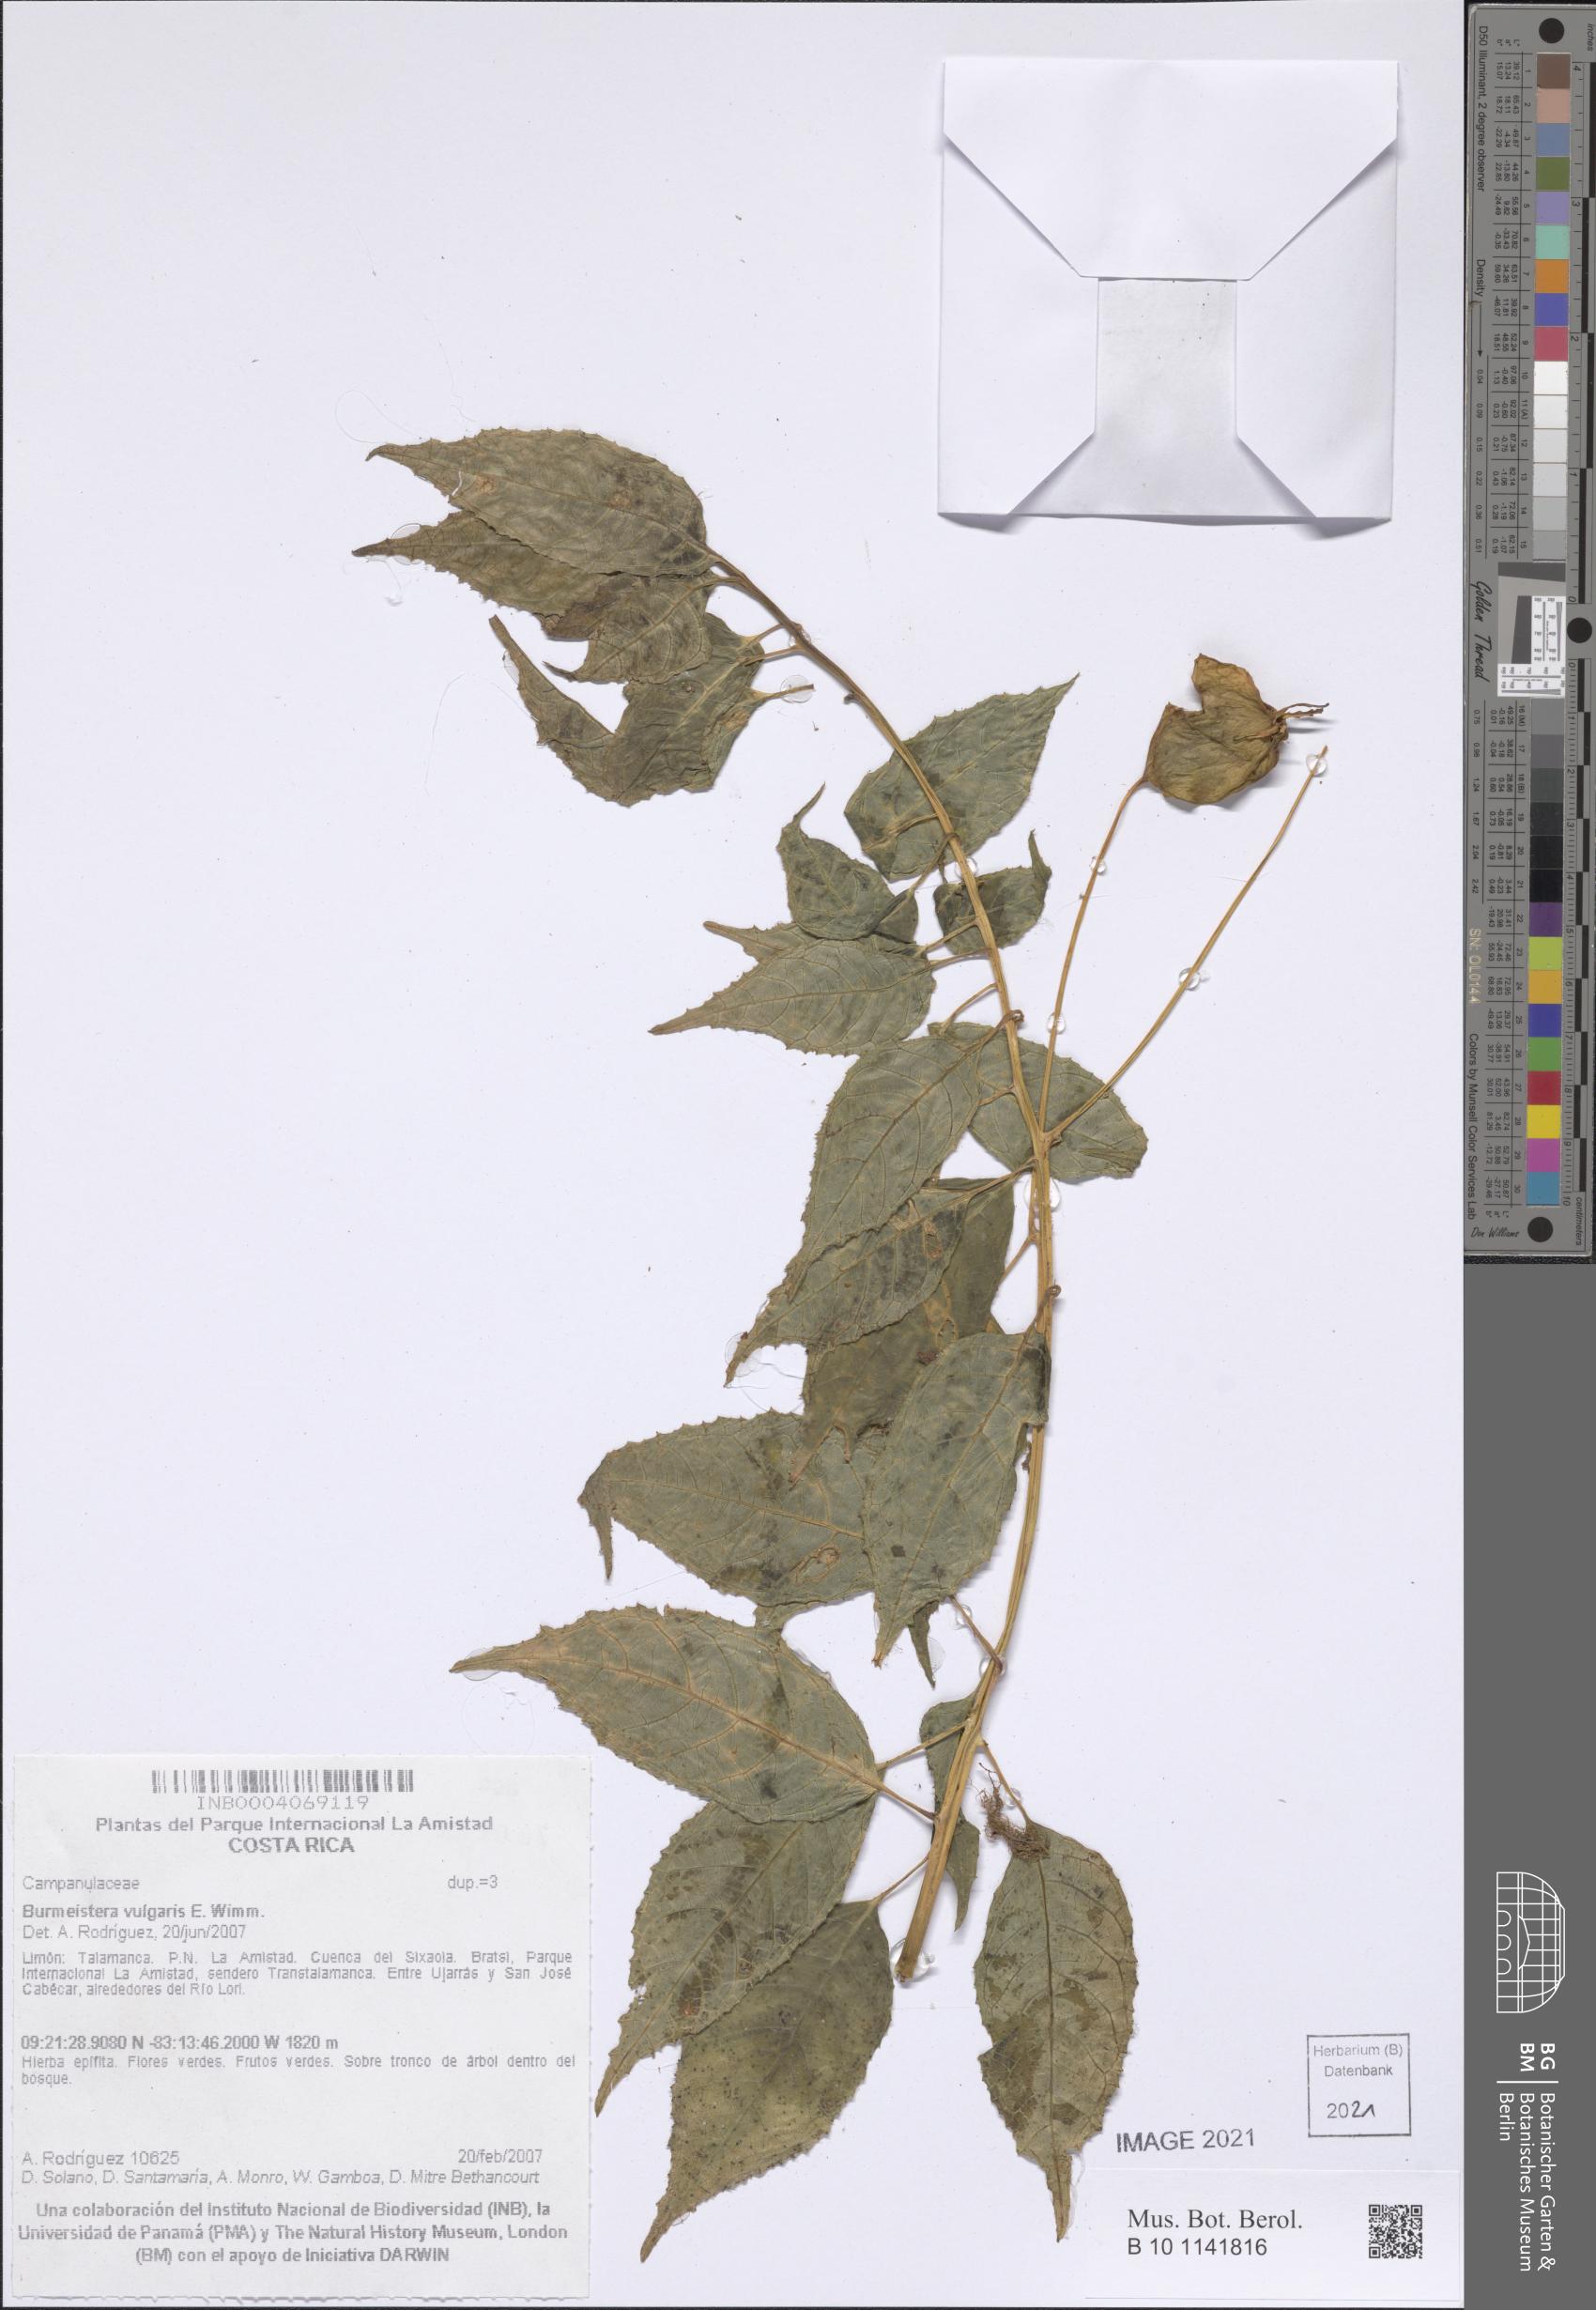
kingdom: Plantae
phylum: Tracheophyta
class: Magnoliopsida
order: Asterales
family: Campanulaceae
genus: Burmeistera
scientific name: Burmeistera vulgaris
